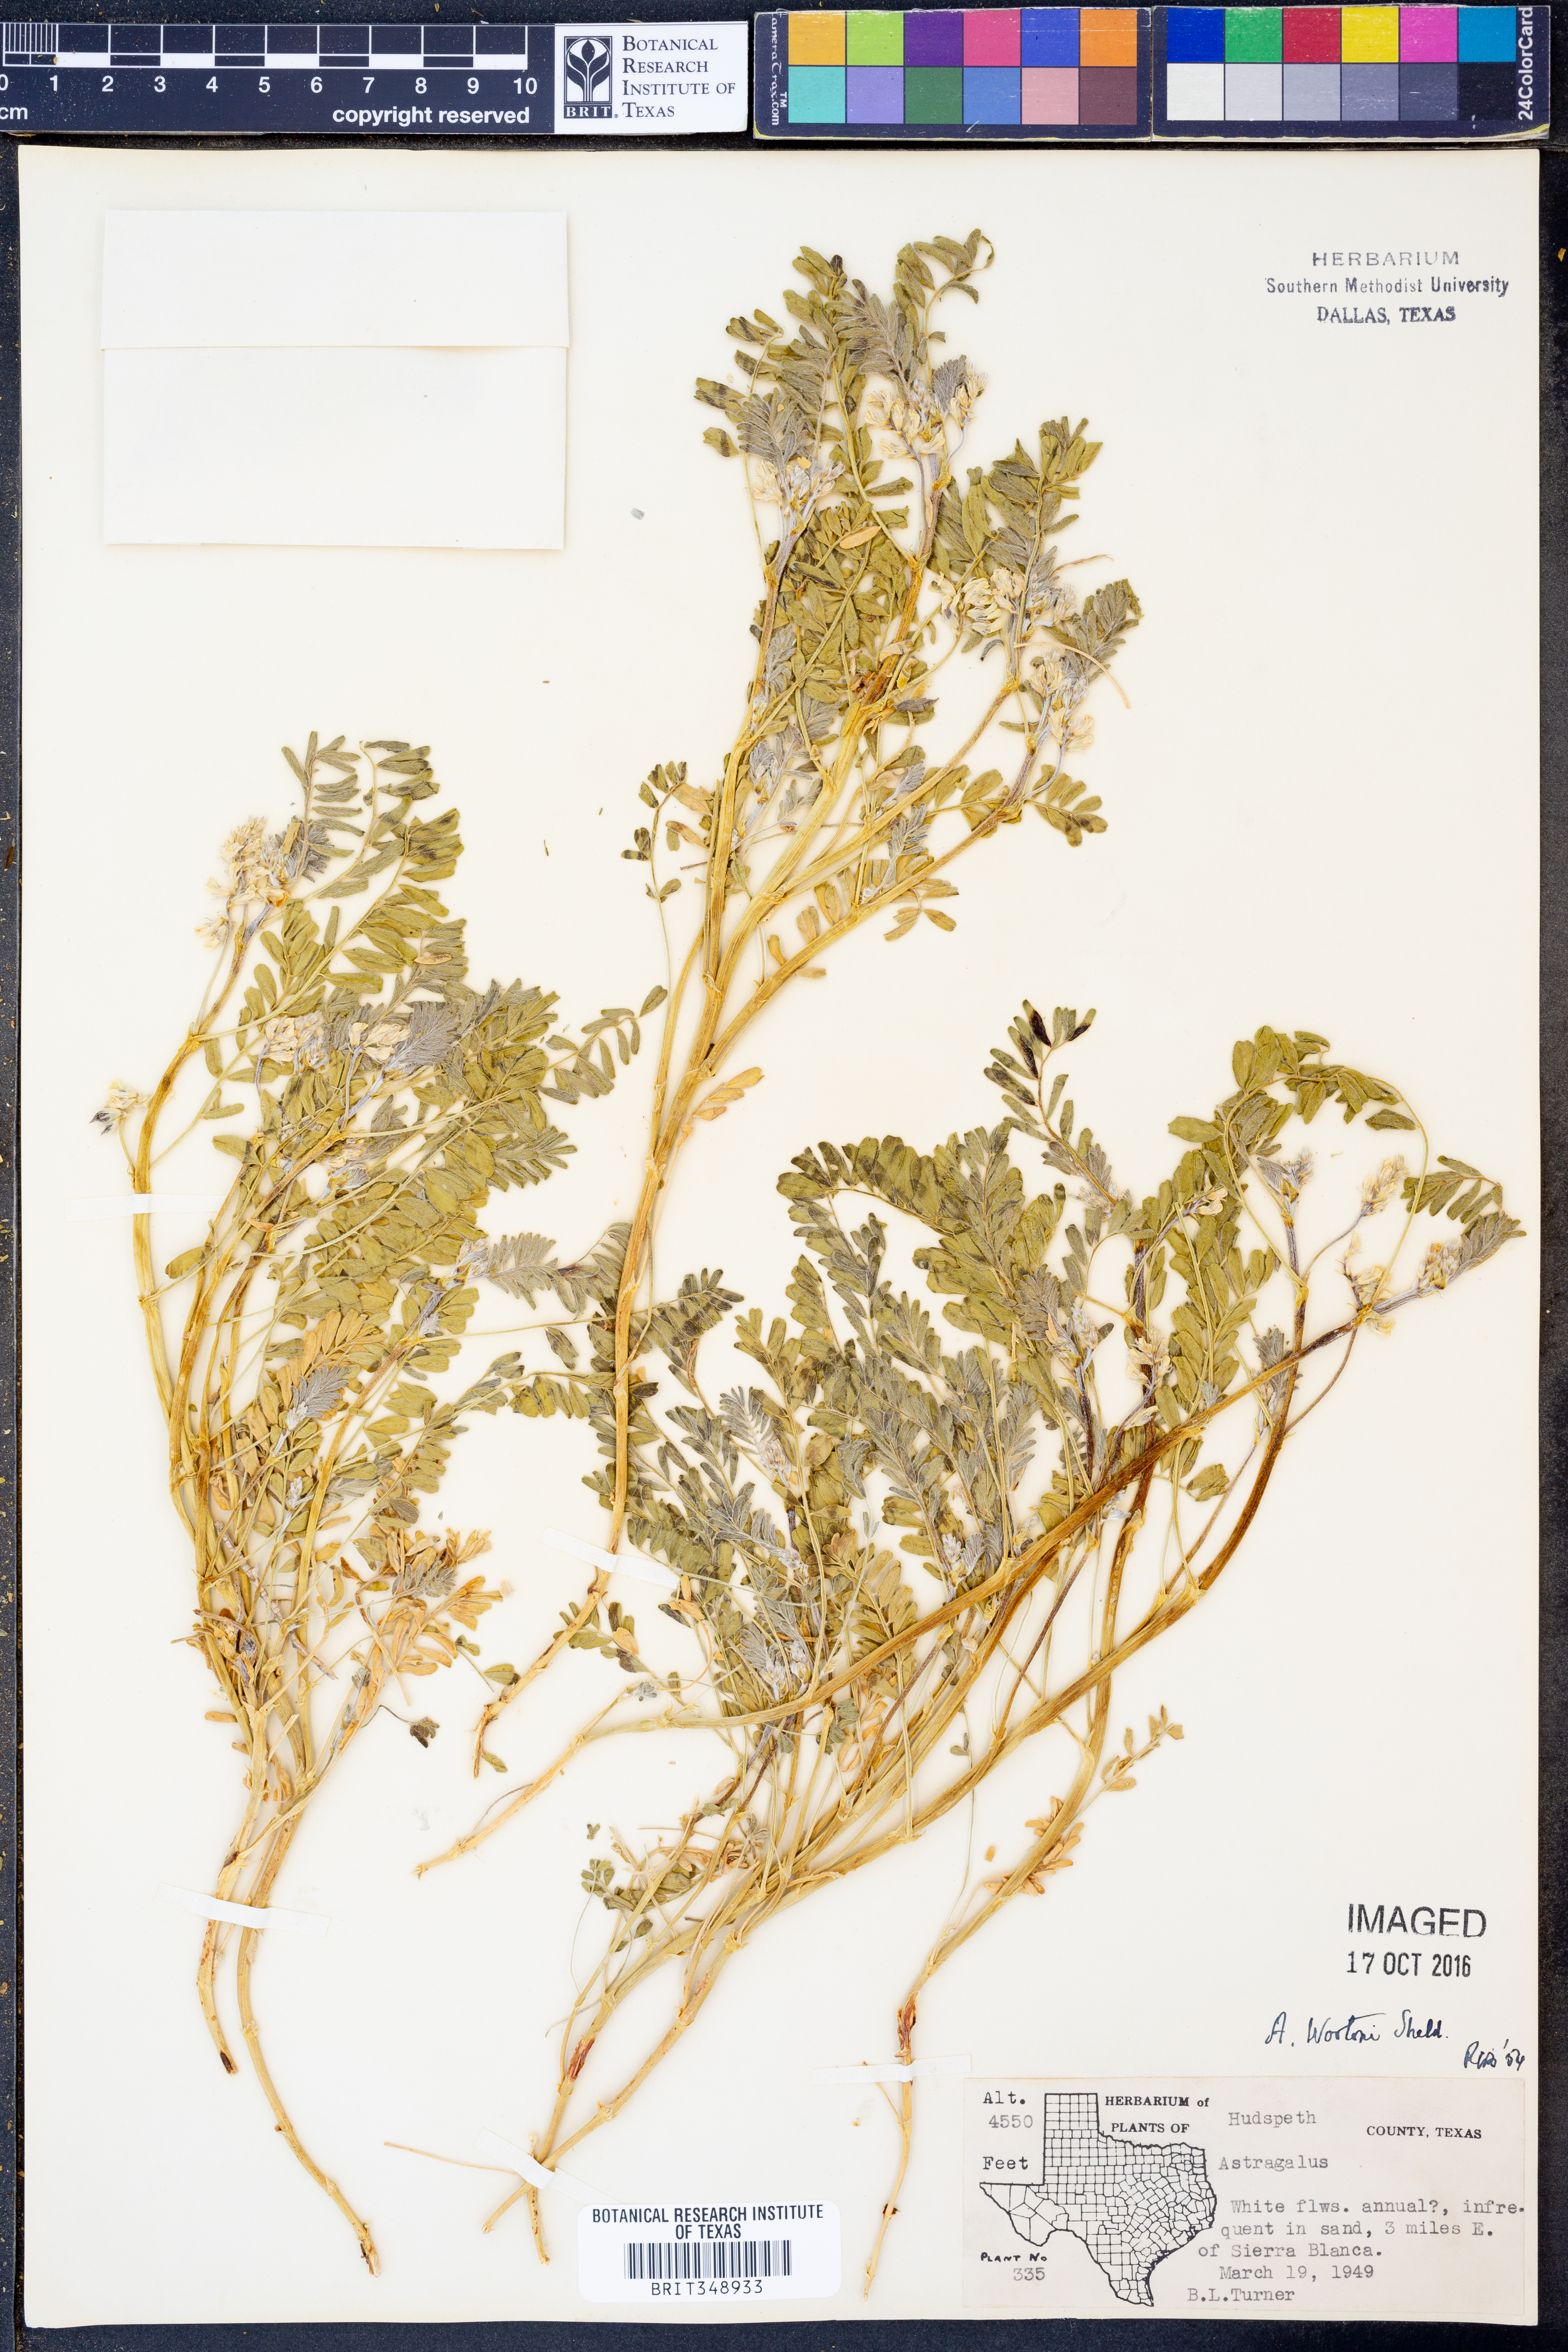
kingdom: Plantae
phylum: Tracheophyta
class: Magnoliopsida
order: Fabales
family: Fabaceae
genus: Astragalus
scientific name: Astragalus wootonii
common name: Wooton's milk-vetch
